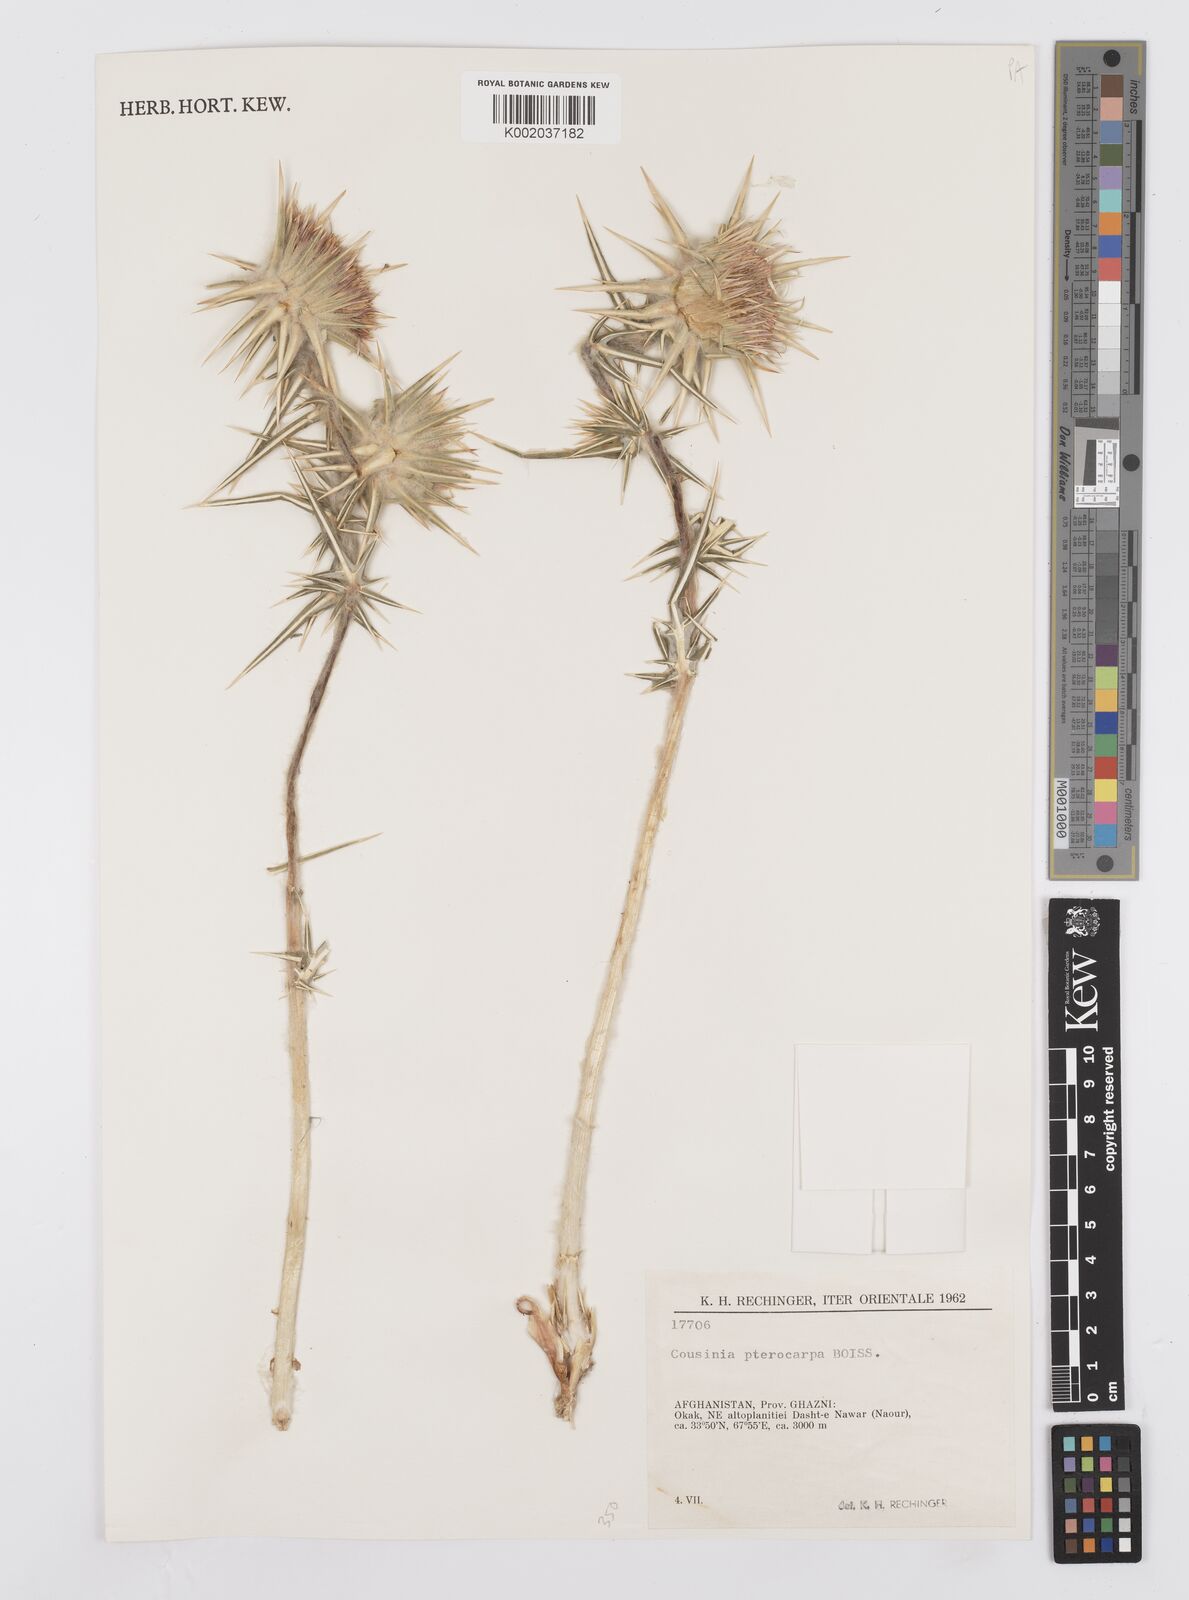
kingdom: Plantae
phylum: Tracheophyta
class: Magnoliopsida
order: Asterales
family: Asteraceae
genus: Cousinia
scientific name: Cousinia pterocarpa
